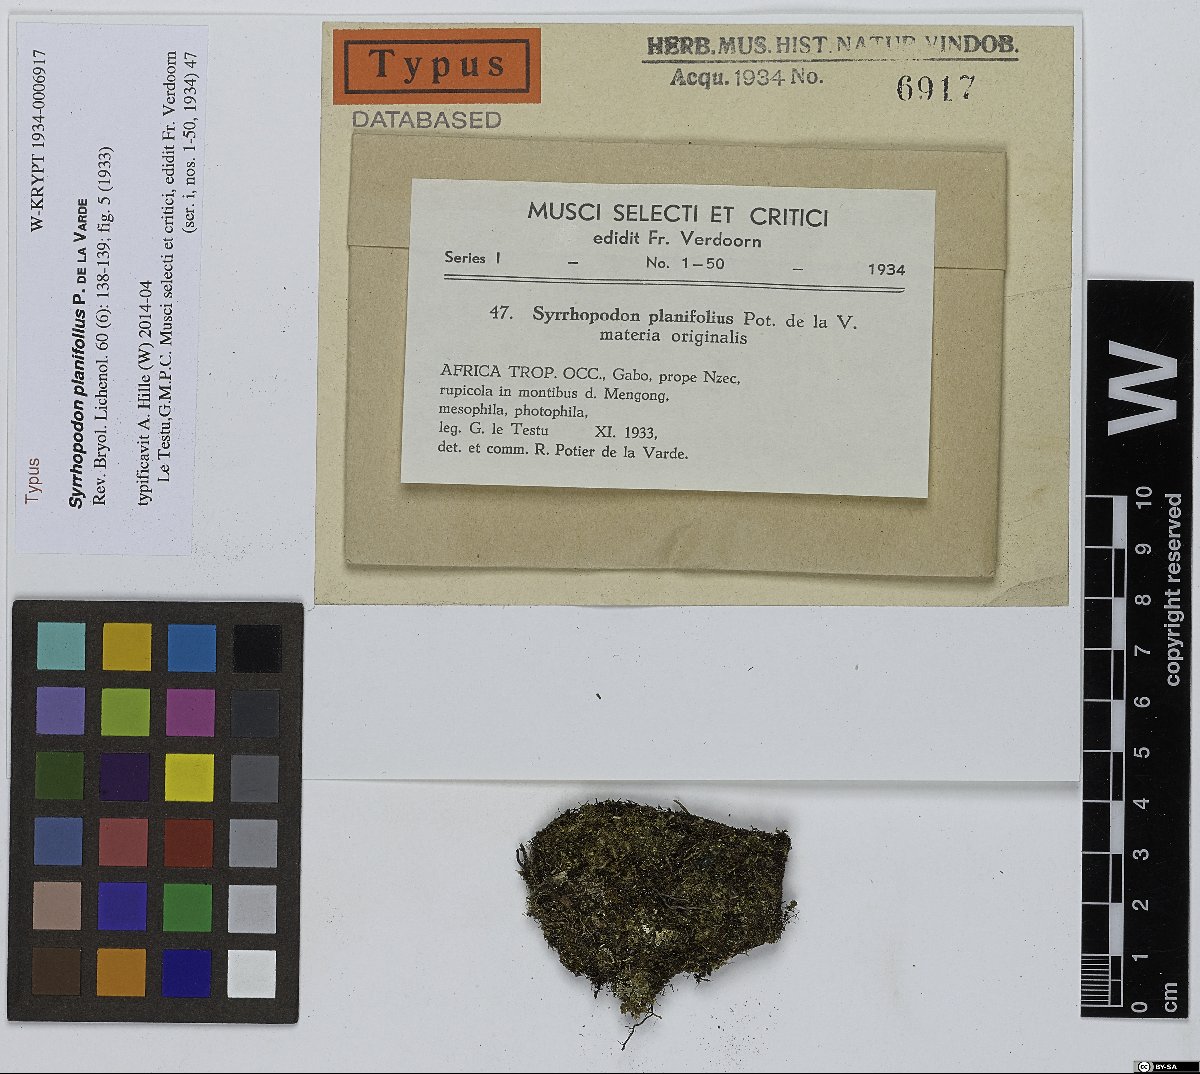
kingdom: Plantae
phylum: Bryophyta
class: Bryopsida
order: Dicranales
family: Calymperaceae
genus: Syrrhopodon
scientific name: Syrrhopodon planifolius
